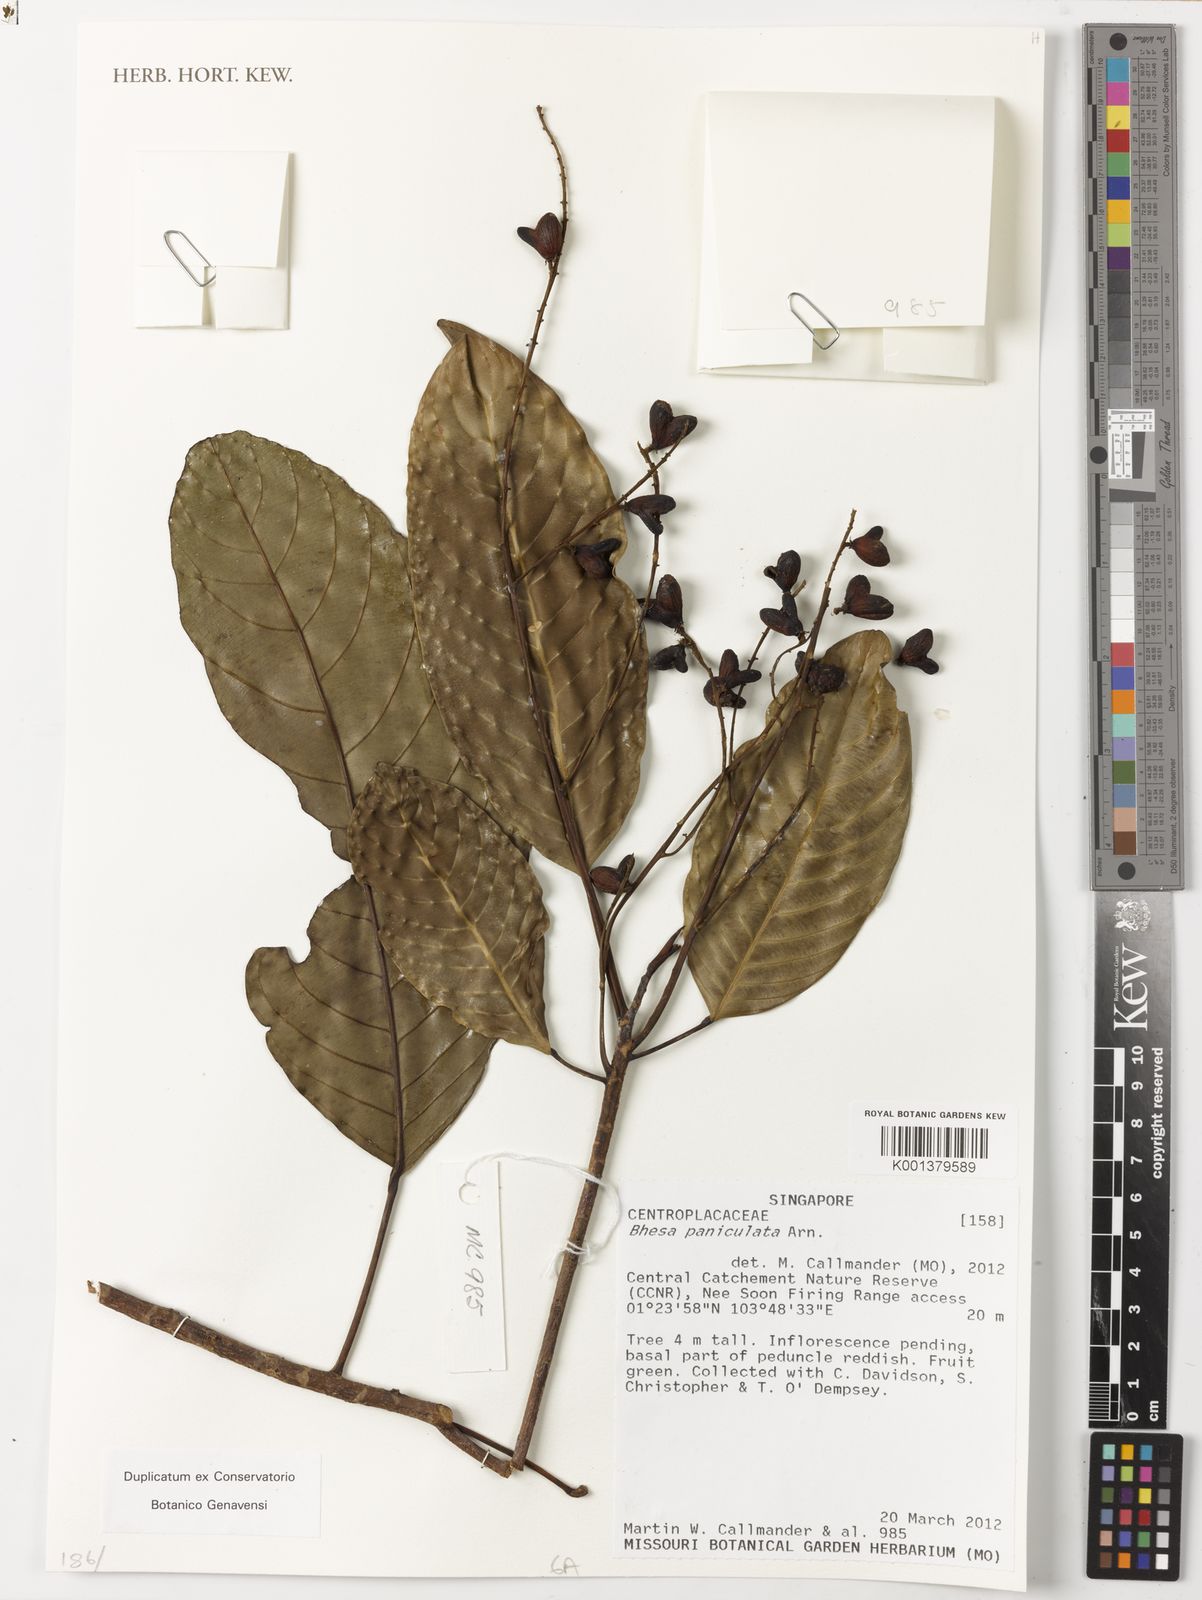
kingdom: Plantae
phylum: Tracheophyta
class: Magnoliopsida
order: Malpighiales
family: Centroplacaceae
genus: Bhesa
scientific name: Bhesa paniculata
